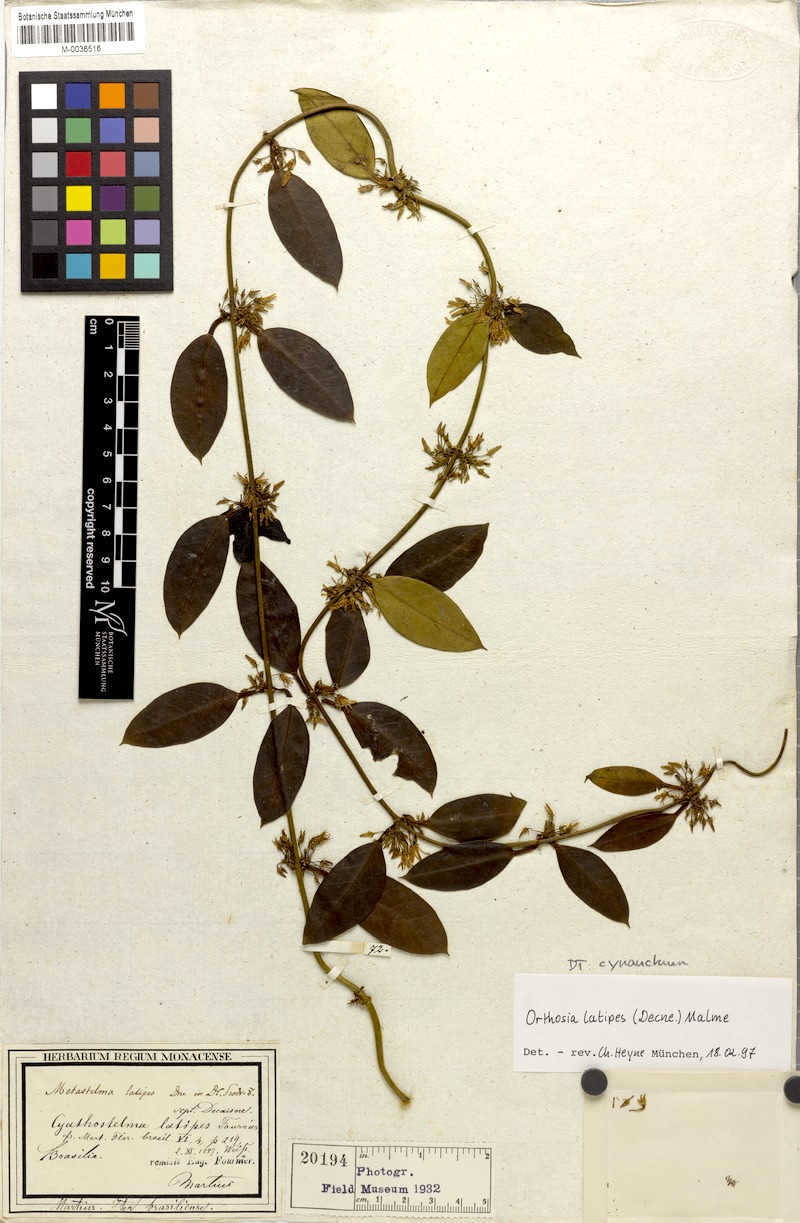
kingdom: Plantae
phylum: Tracheophyta
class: Magnoliopsida
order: Gentianales
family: Apocynaceae
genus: Jobinia
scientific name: Jobinia latipes
